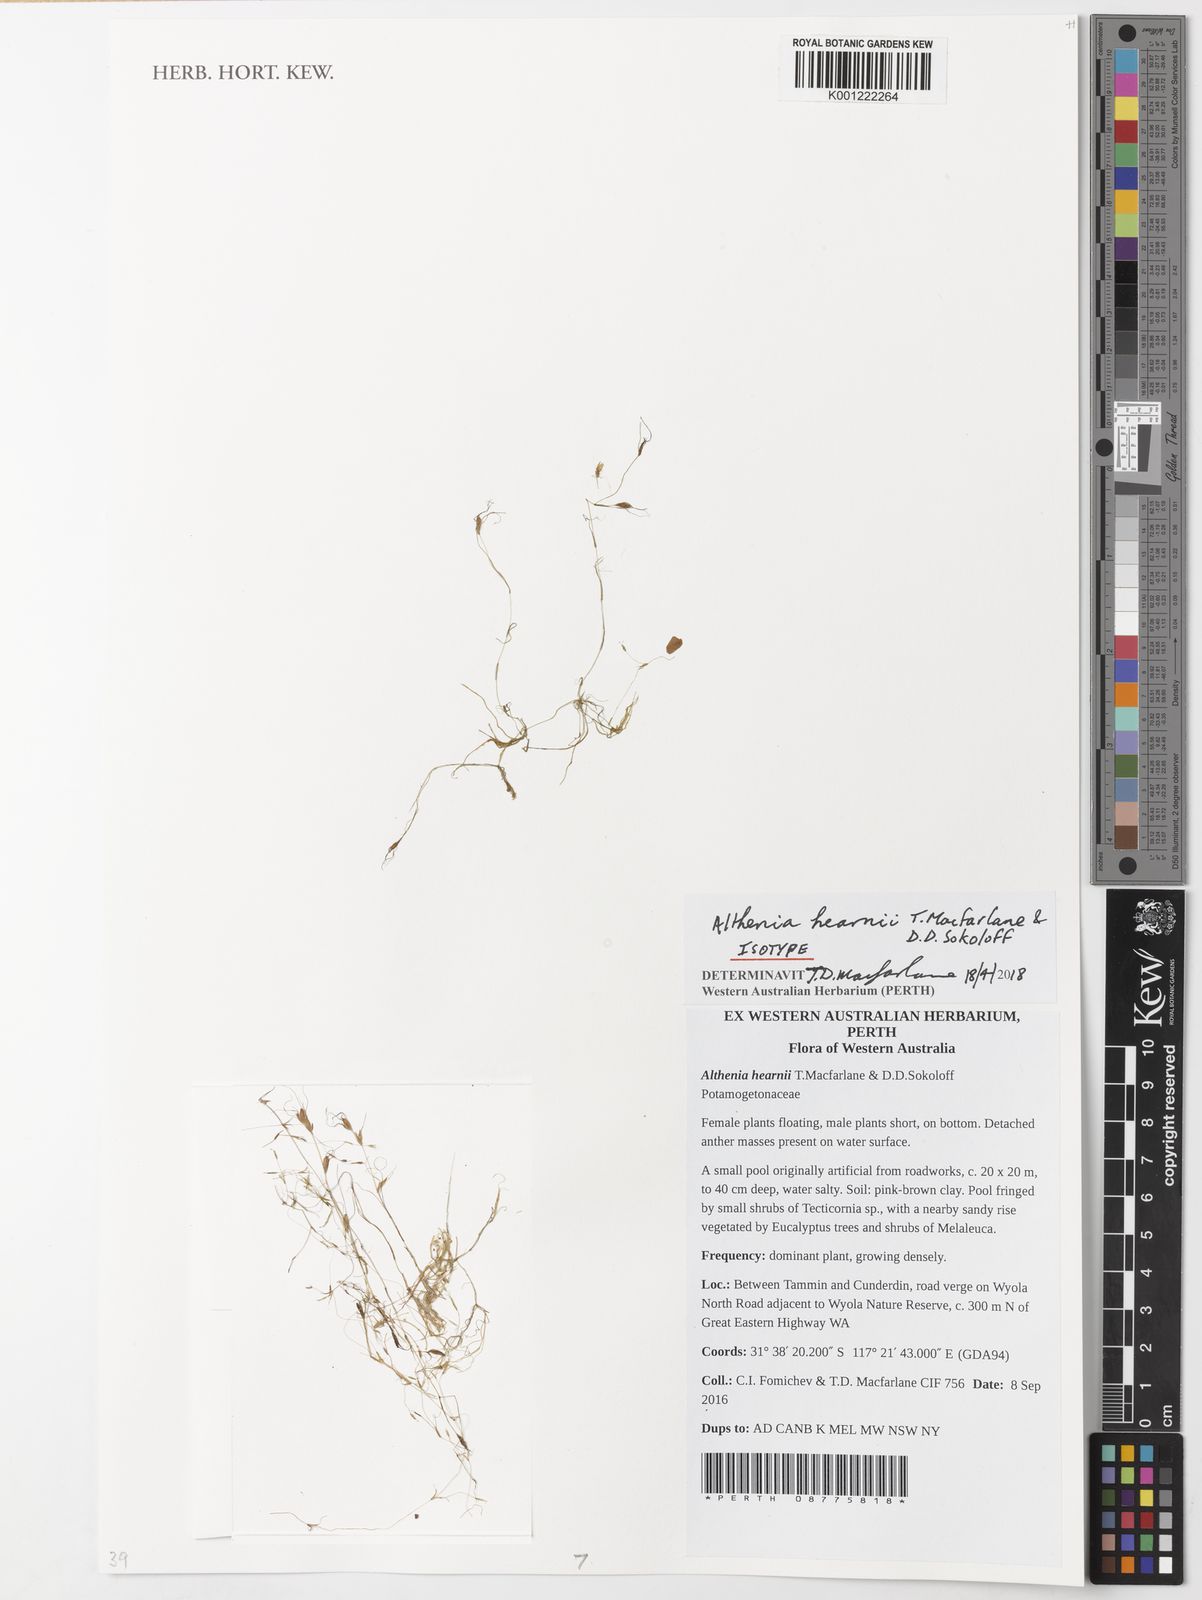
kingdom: Plantae
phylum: Tracheophyta
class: Liliopsida
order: Alismatales
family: Potamogetonaceae
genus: Althenia
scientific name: Althenia hearnii
